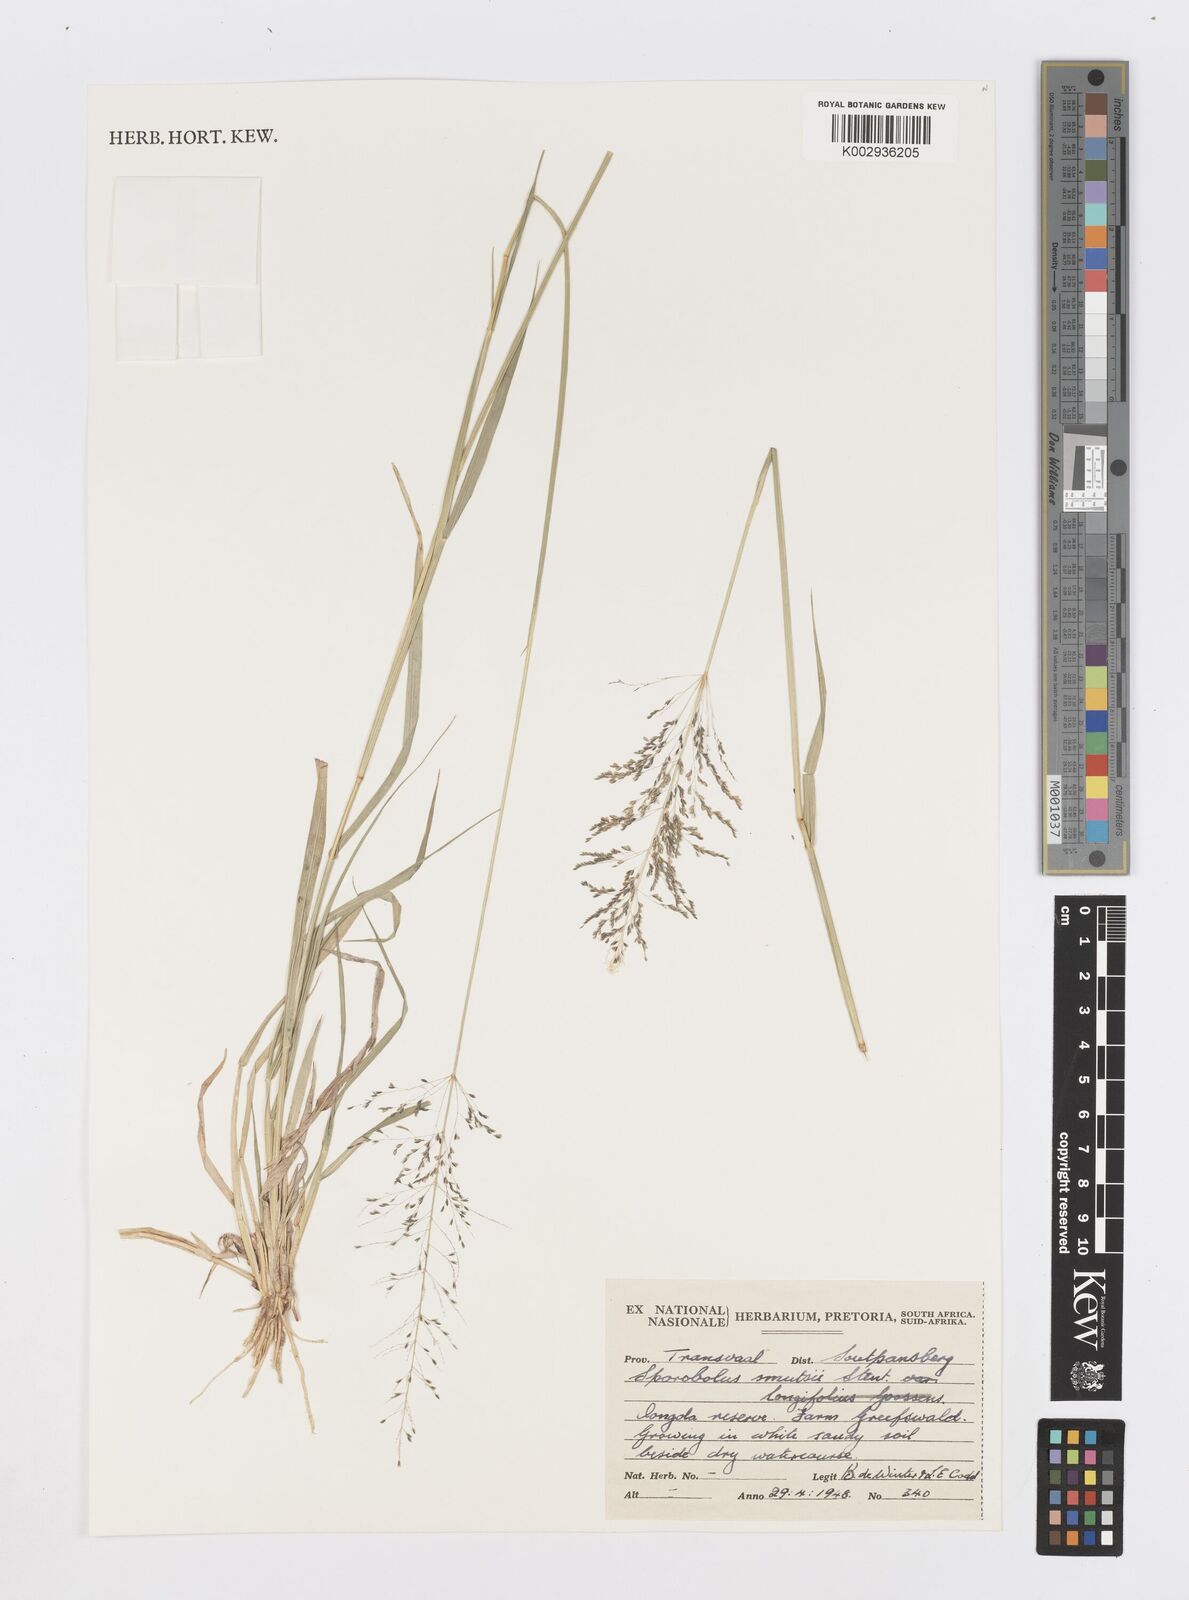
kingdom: Plantae
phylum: Tracheophyta
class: Liliopsida
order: Poales
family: Poaceae
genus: Sporobolus
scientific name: Sporobolus ioclados
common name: Pan dropseed
